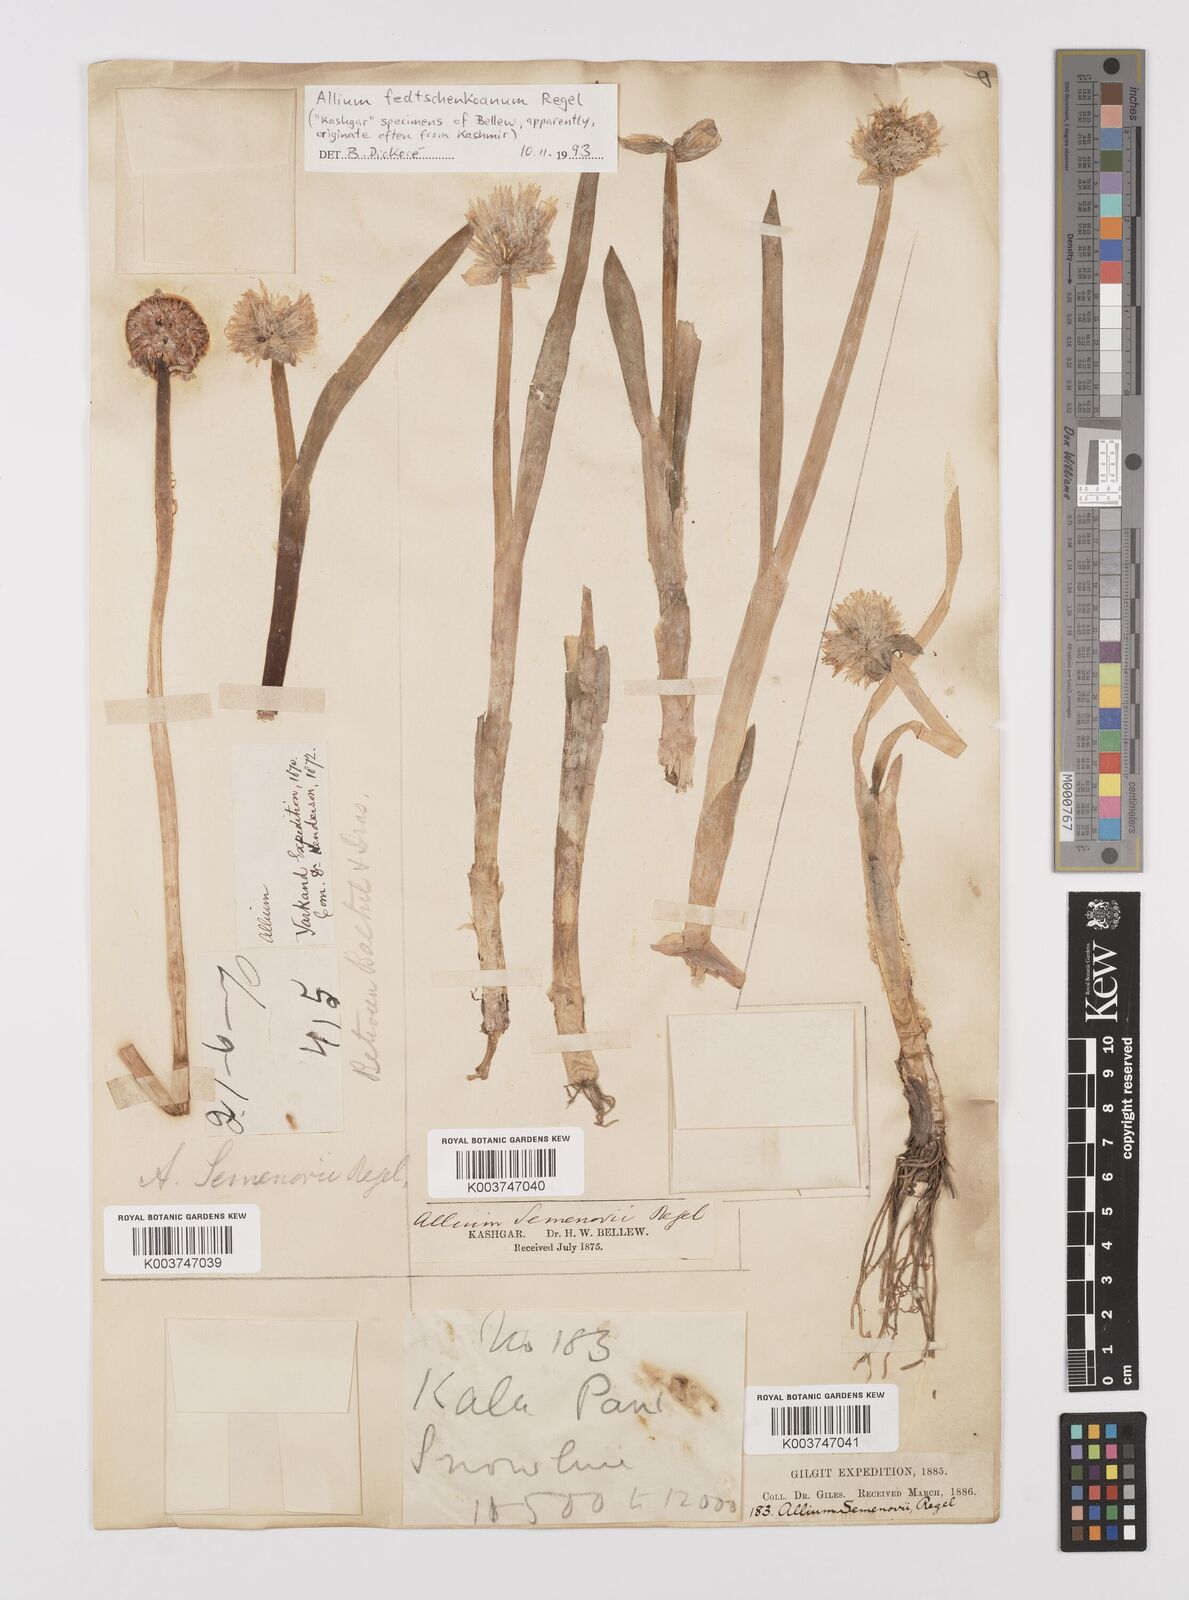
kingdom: Plantae
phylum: Tracheophyta
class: Liliopsida
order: Asparagales
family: Amaryllidaceae
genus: Allium
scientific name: Allium fedtschenkoi
